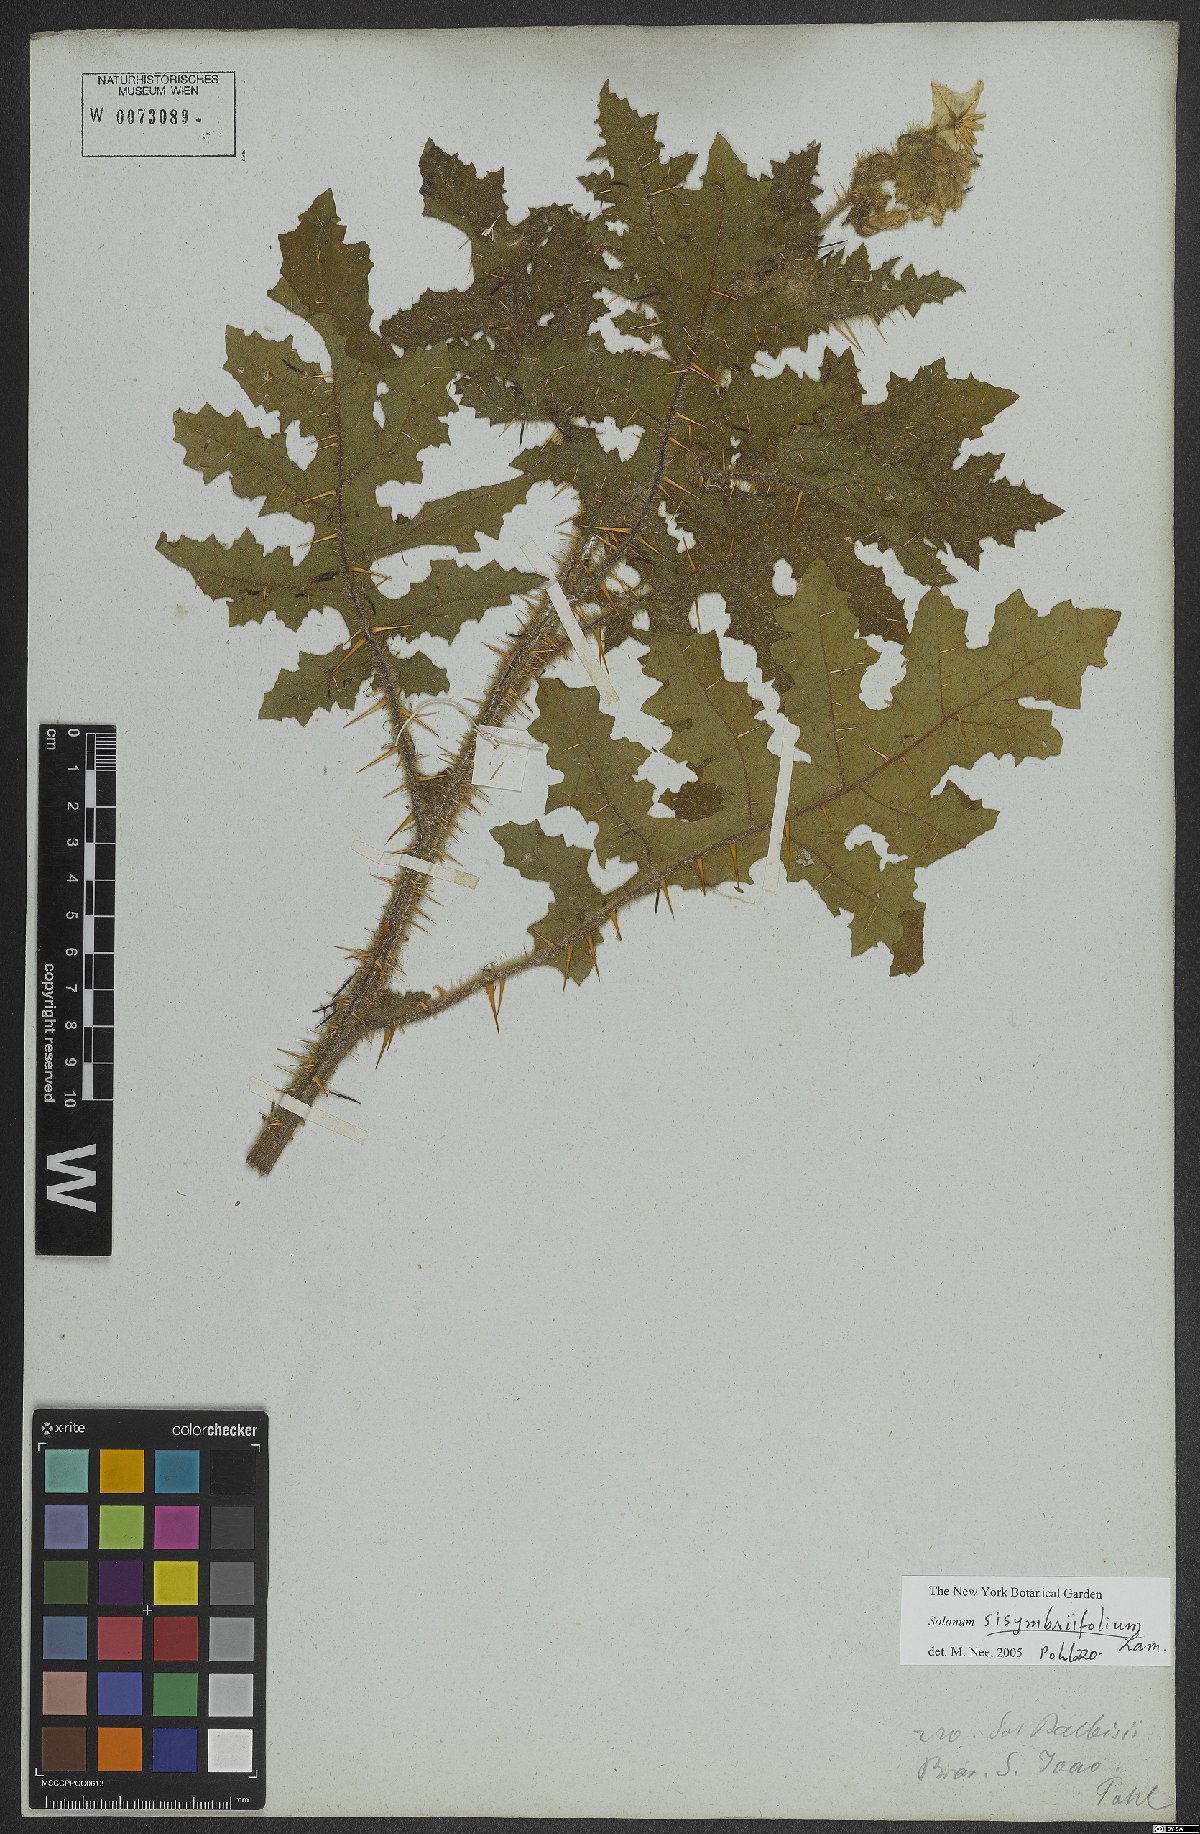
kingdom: Plantae
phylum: Tracheophyta
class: Magnoliopsida
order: Solanales
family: Solanaceae
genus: Solanum
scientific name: Solanum sisymbriifolium
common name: Red buffalo-bur
